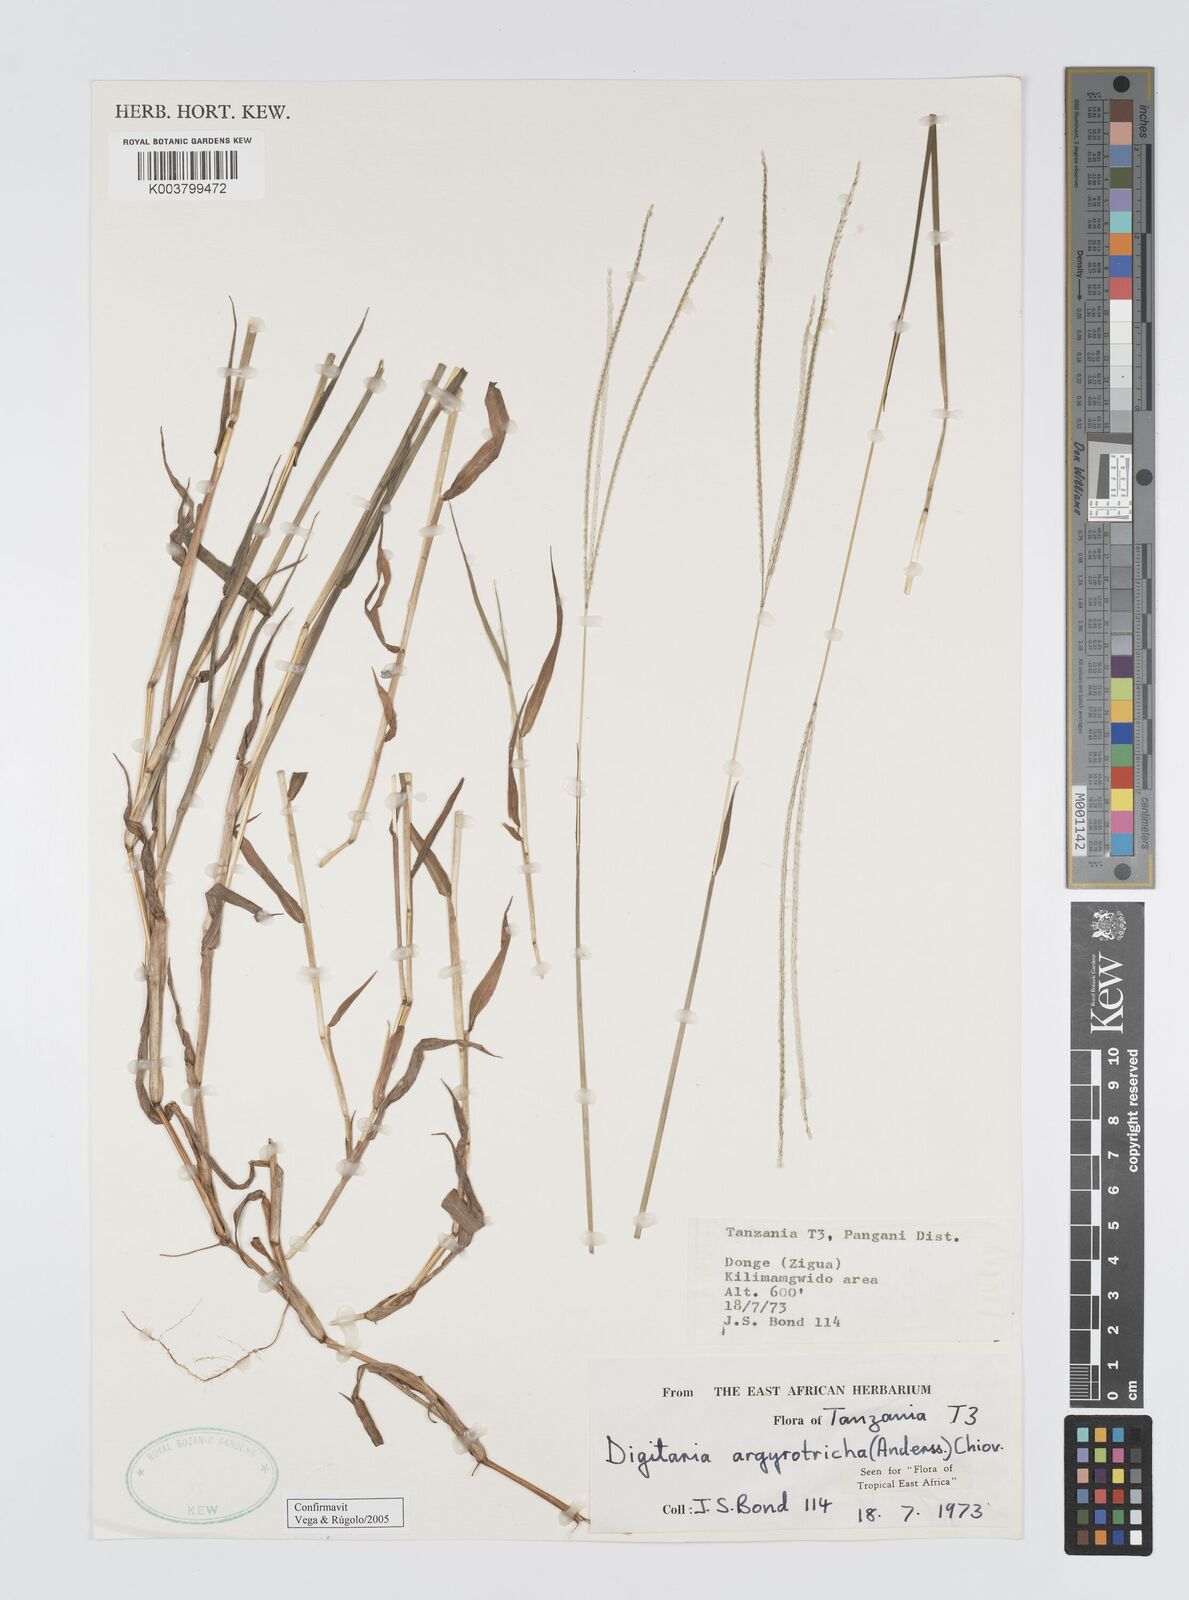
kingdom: Plantae
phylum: Tracheophyta
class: Liliopsida
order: Poales
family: Poaceae
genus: Digitaria
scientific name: Digitaria argyrotricha
